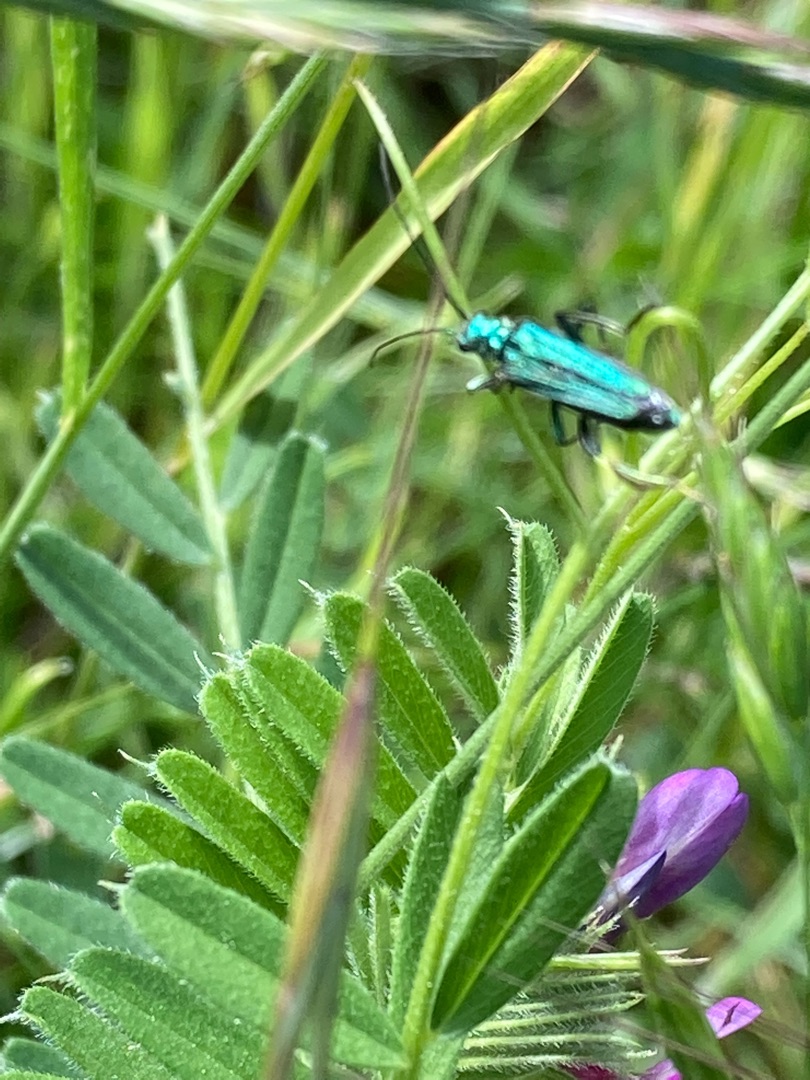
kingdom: Animalia
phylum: Arthropoda
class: Insecta
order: Coleoptera
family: Oedemeridae
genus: Oedemera
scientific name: Oedemera nobilis
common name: Tyklårssolbille
